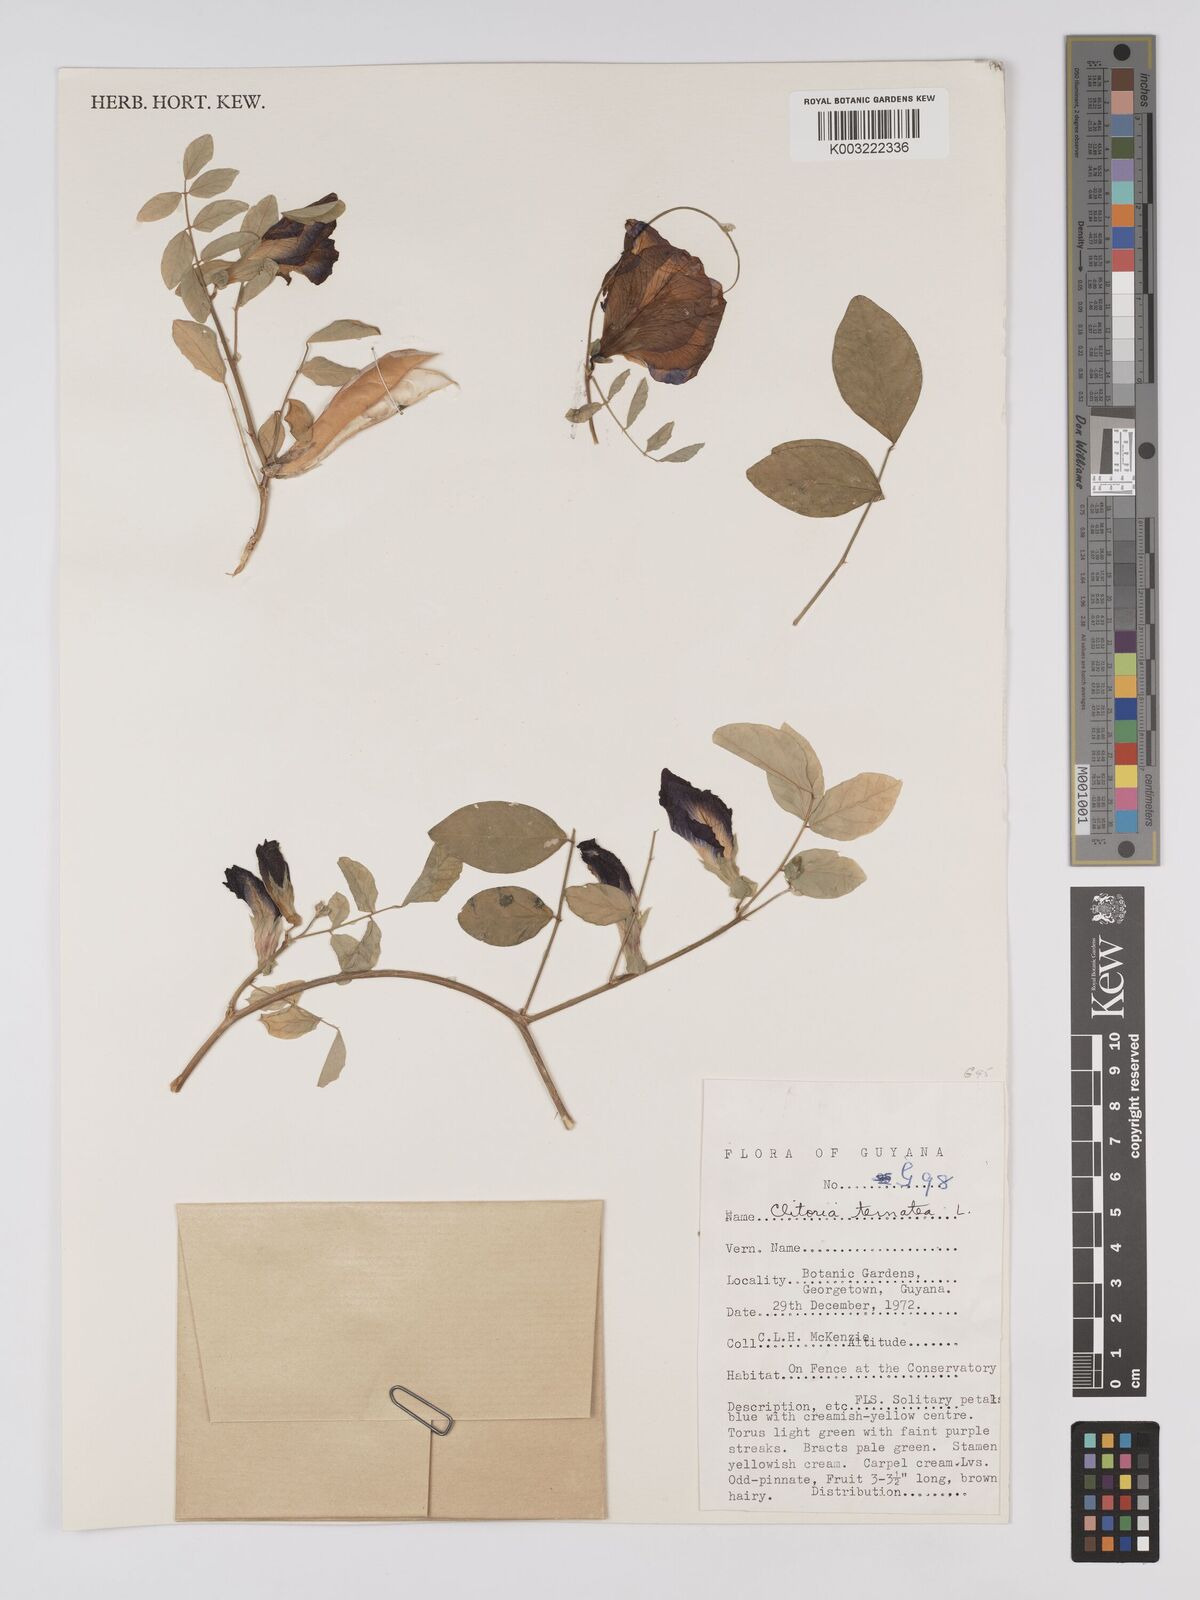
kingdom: Plantae
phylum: Tracheophyta
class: Magnoliopsida
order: Fabales
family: Fabaceae
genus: Clitoria
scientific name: Clitoria ternatea
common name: Asian pigeonwings
